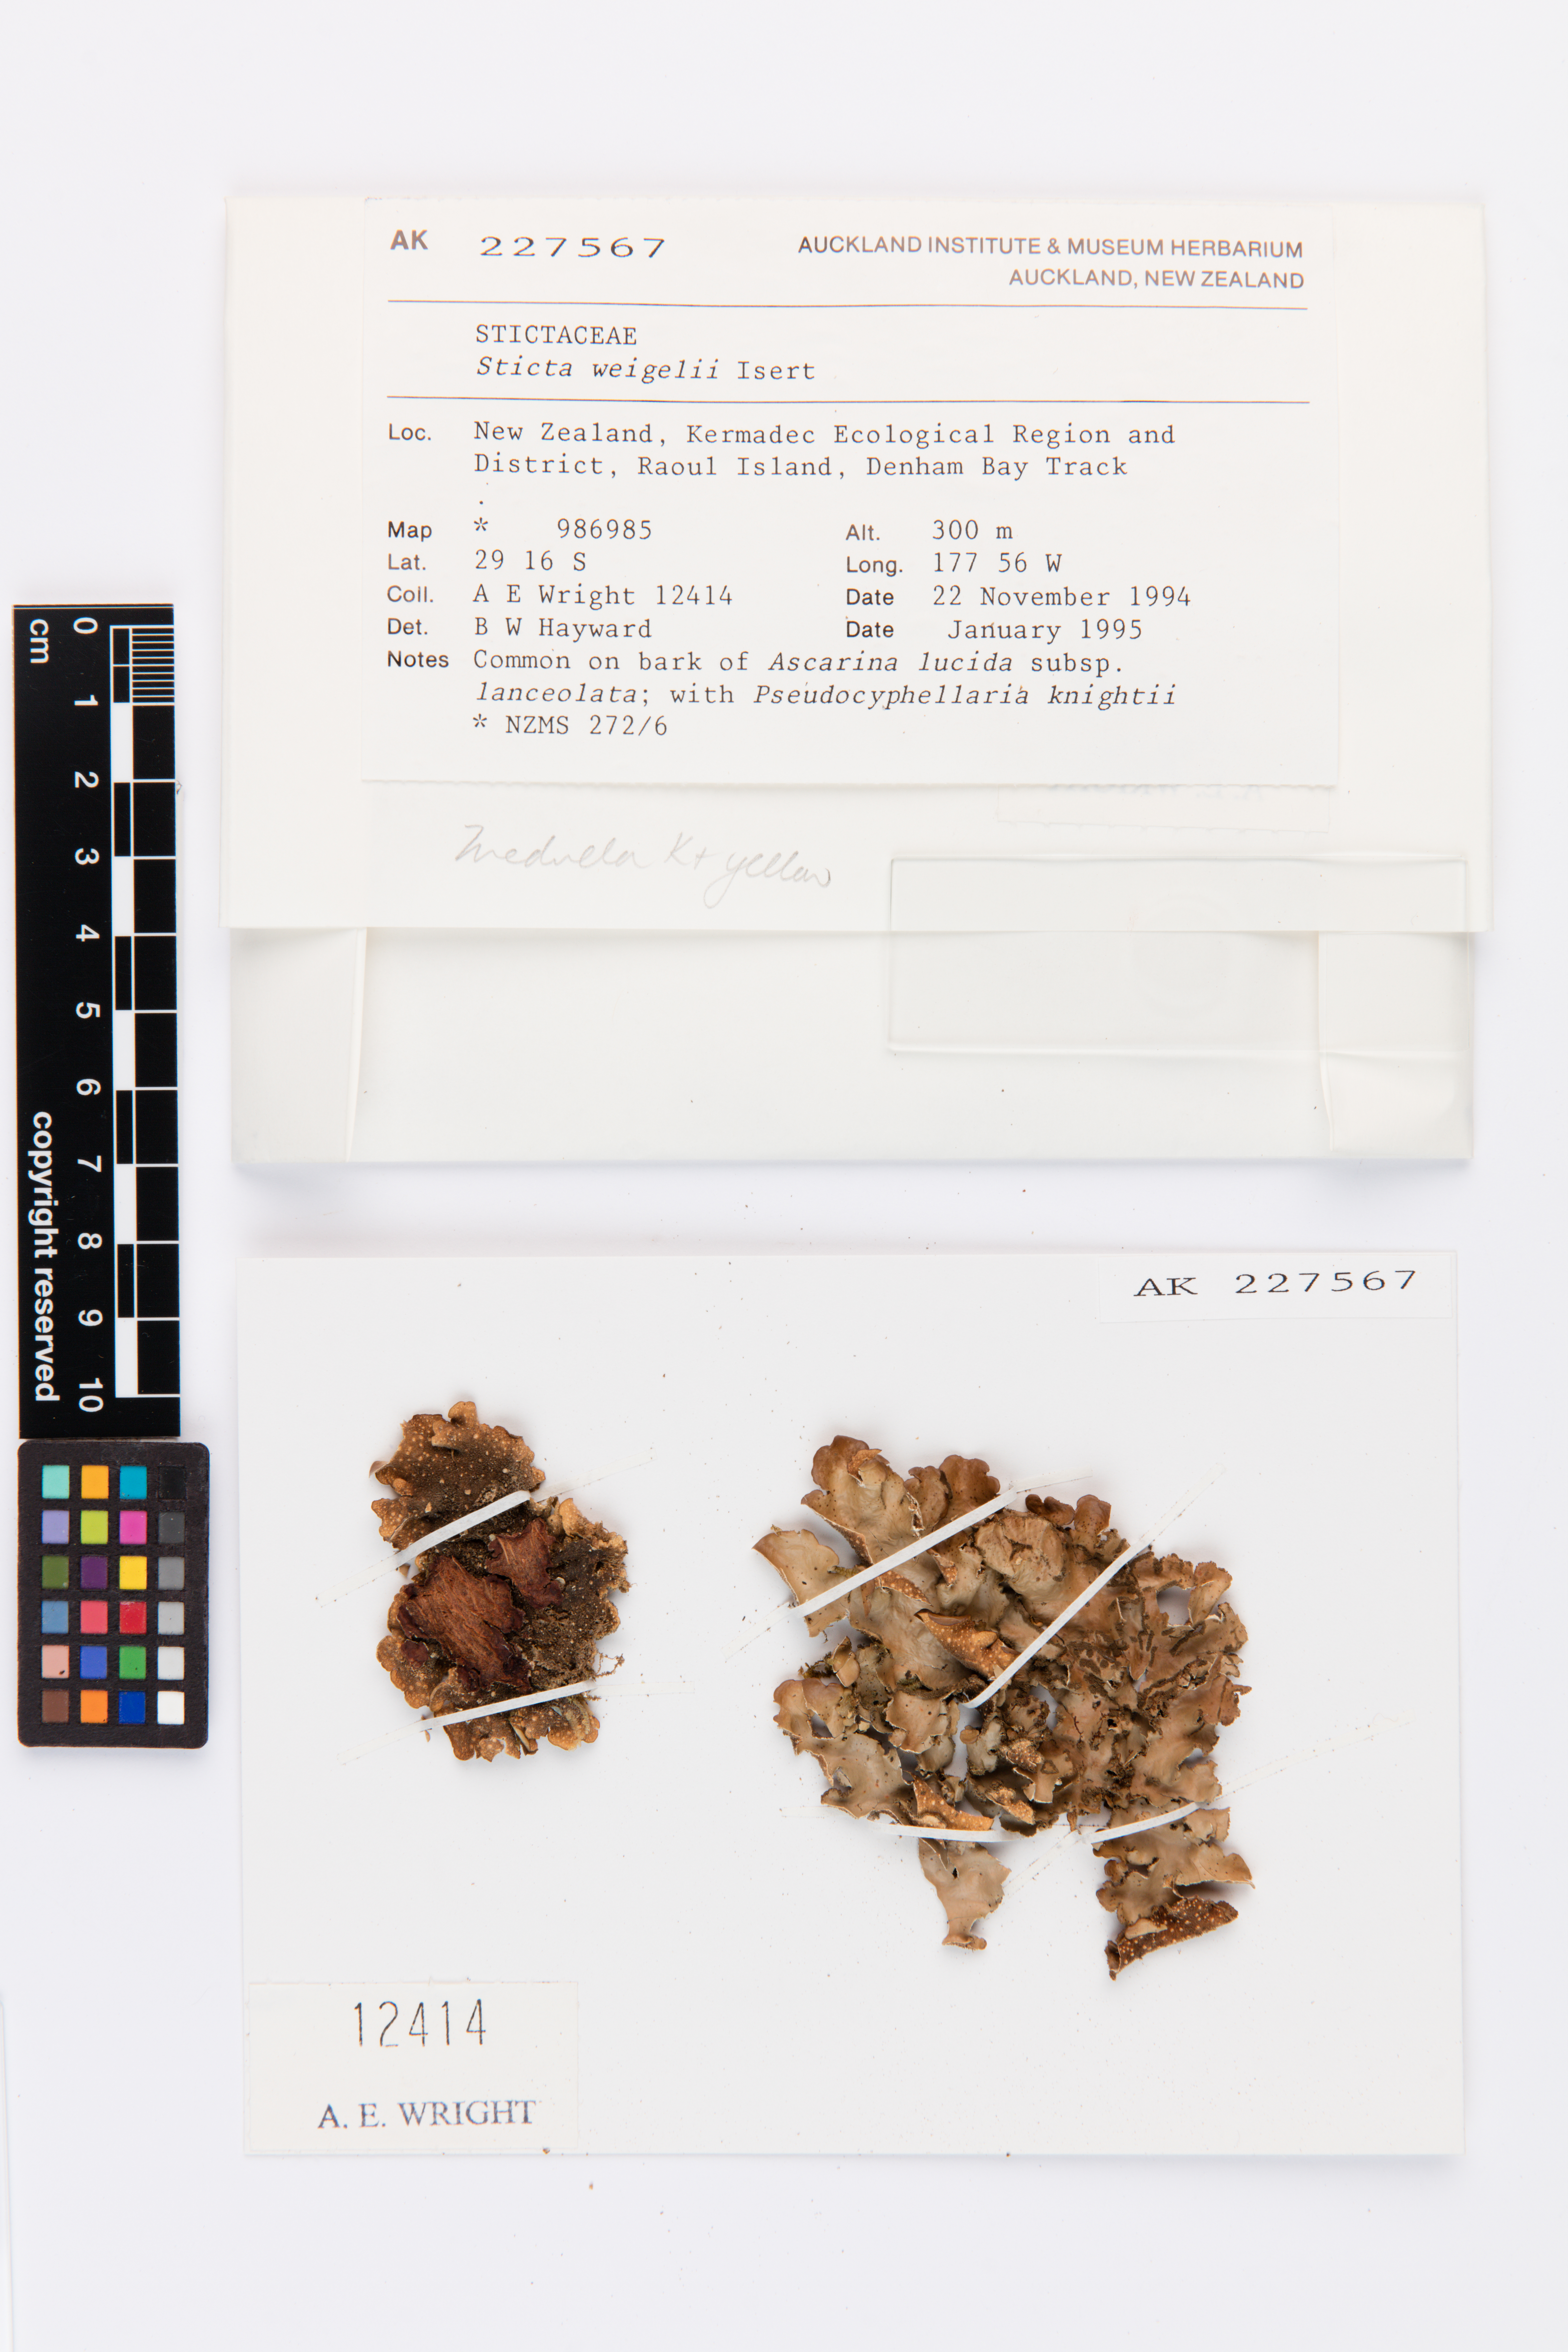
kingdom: Fungi
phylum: Ascomycota
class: Lecanoromycetes
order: Peltigerales
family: Lobariaceae
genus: Sticta
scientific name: Sticta weigelii
